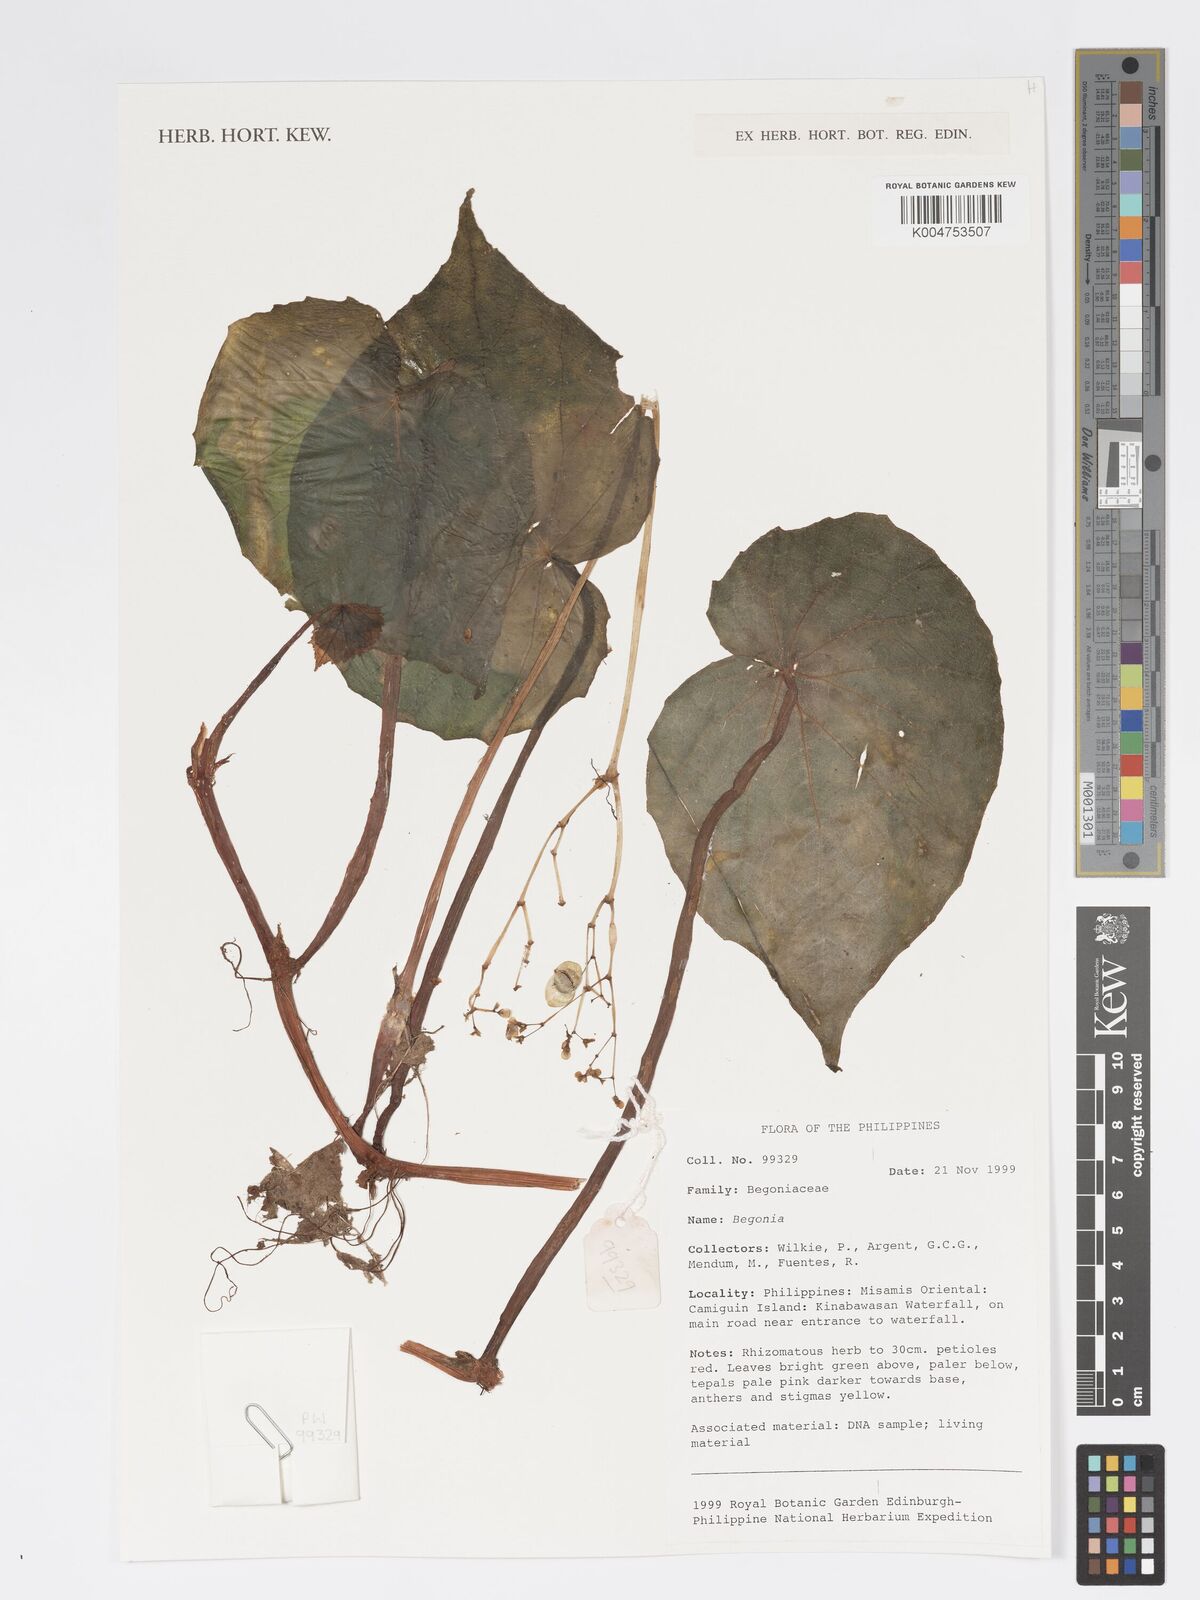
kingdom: Plantae
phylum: Tracheophyta
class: Magnoliopsida
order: Cucurbitales
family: Begoniaceae
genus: Begonia
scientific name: Begonia
